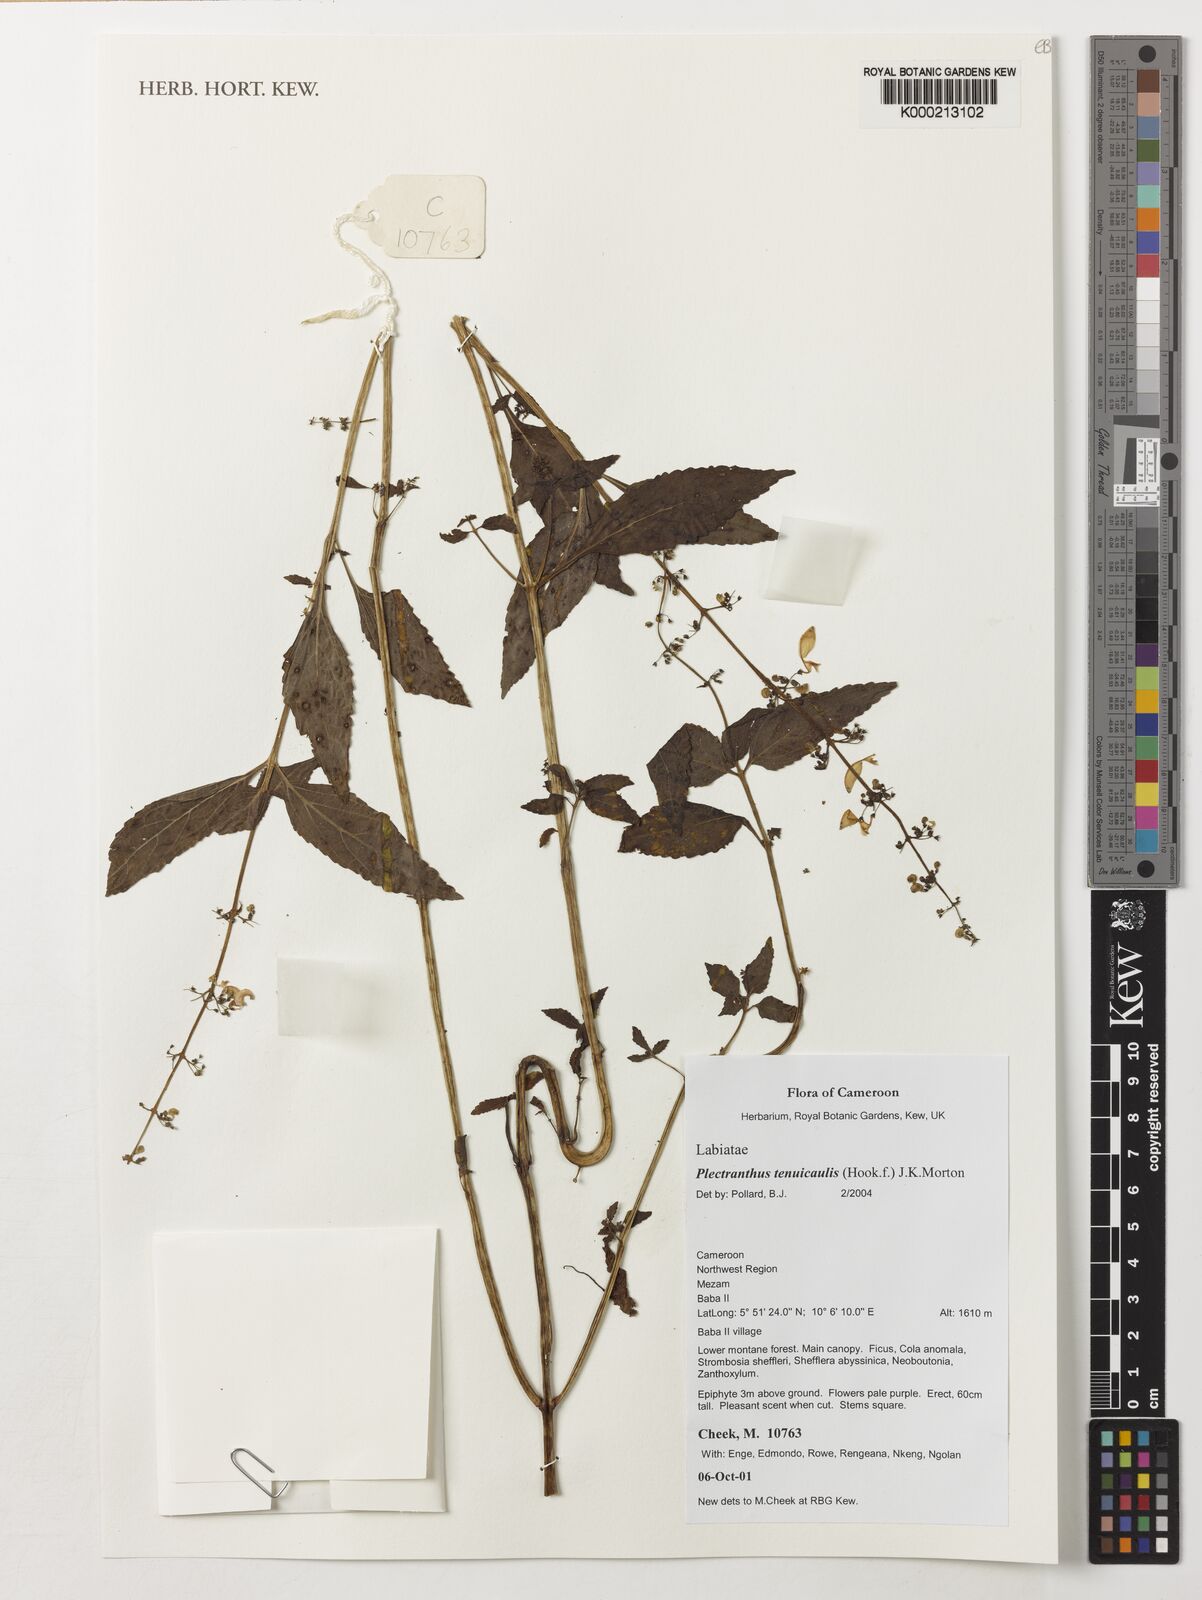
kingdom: Plantae
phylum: Tracheophyta
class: Magnoliopsida
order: Lamiales
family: Lamiaceae
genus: Coleus
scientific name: Coleus tenuicaulis
